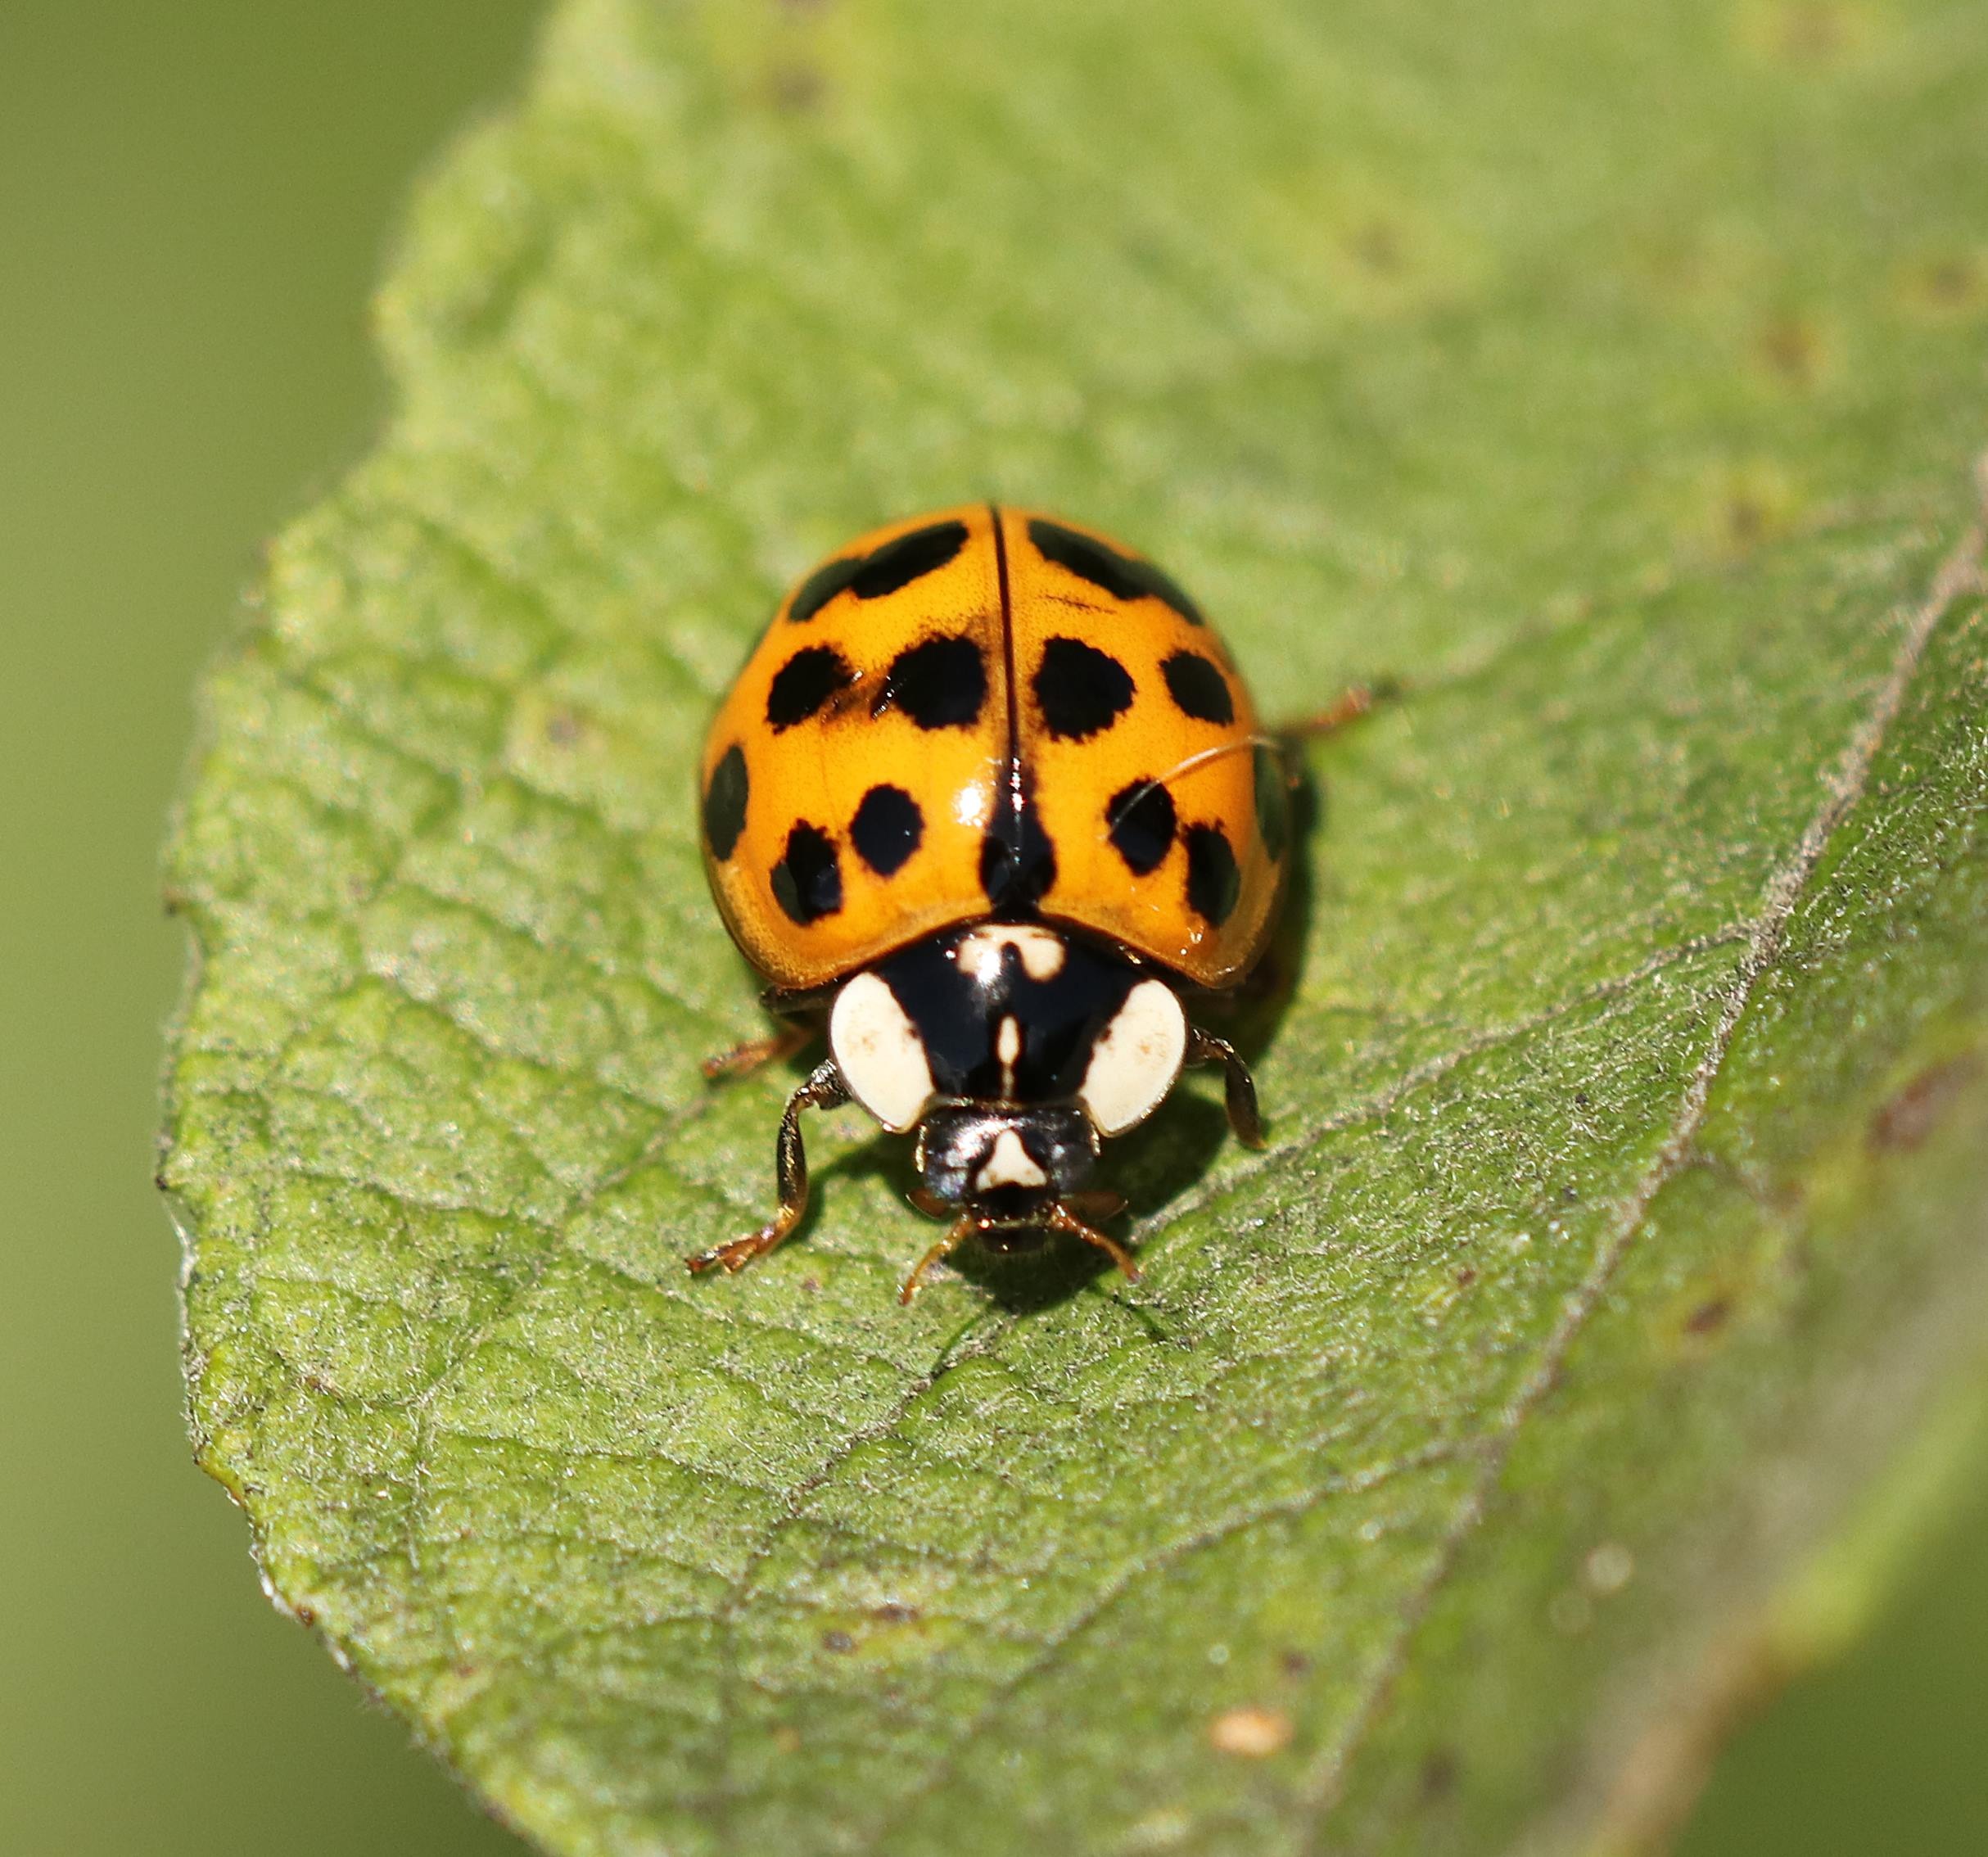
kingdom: Animalia
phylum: Arthropoda
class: Insecta
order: Coleoptera
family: Coccinellidae
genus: Harmonia
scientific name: Harmonia axyridis
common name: Harlekinmariehøne
